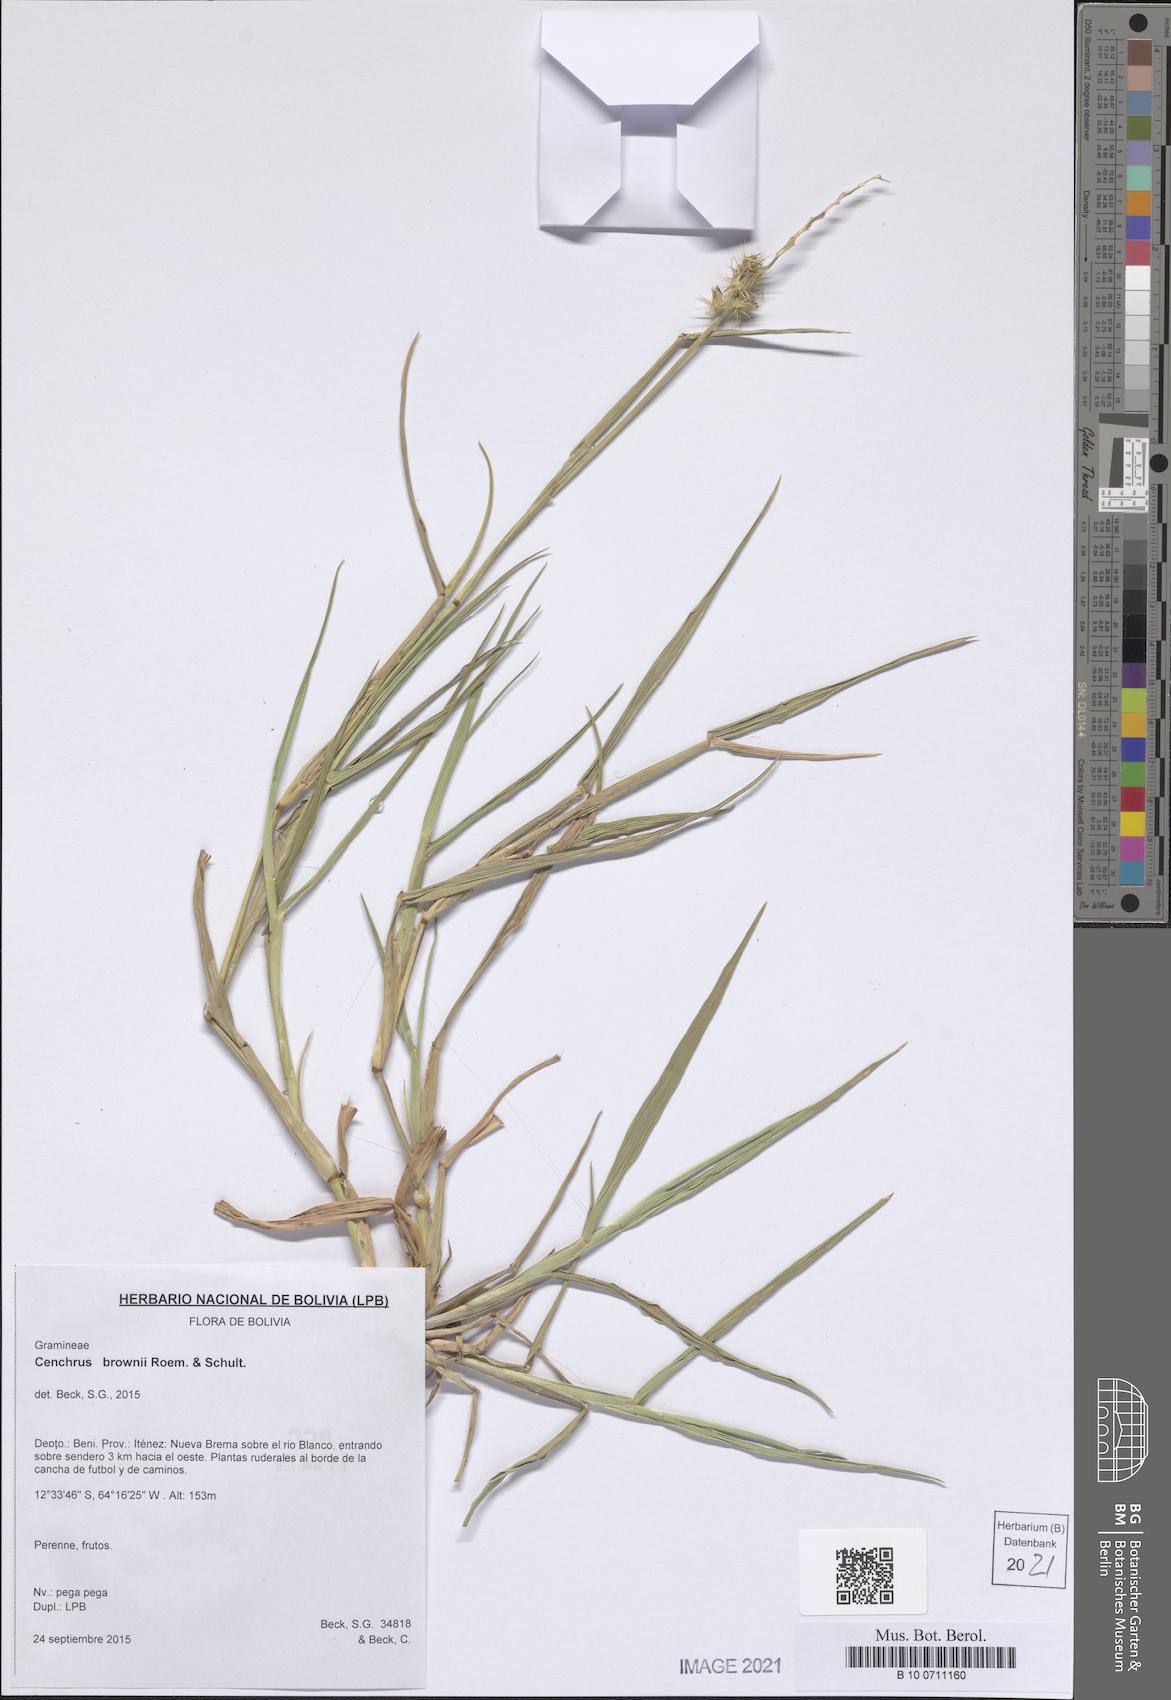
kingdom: Plantae
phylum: Tracheophyta
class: Liliopsida
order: Poales
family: Poaceae
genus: Cenchrus
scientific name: Cenchrus brownii
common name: Slim-bristle sandbur
